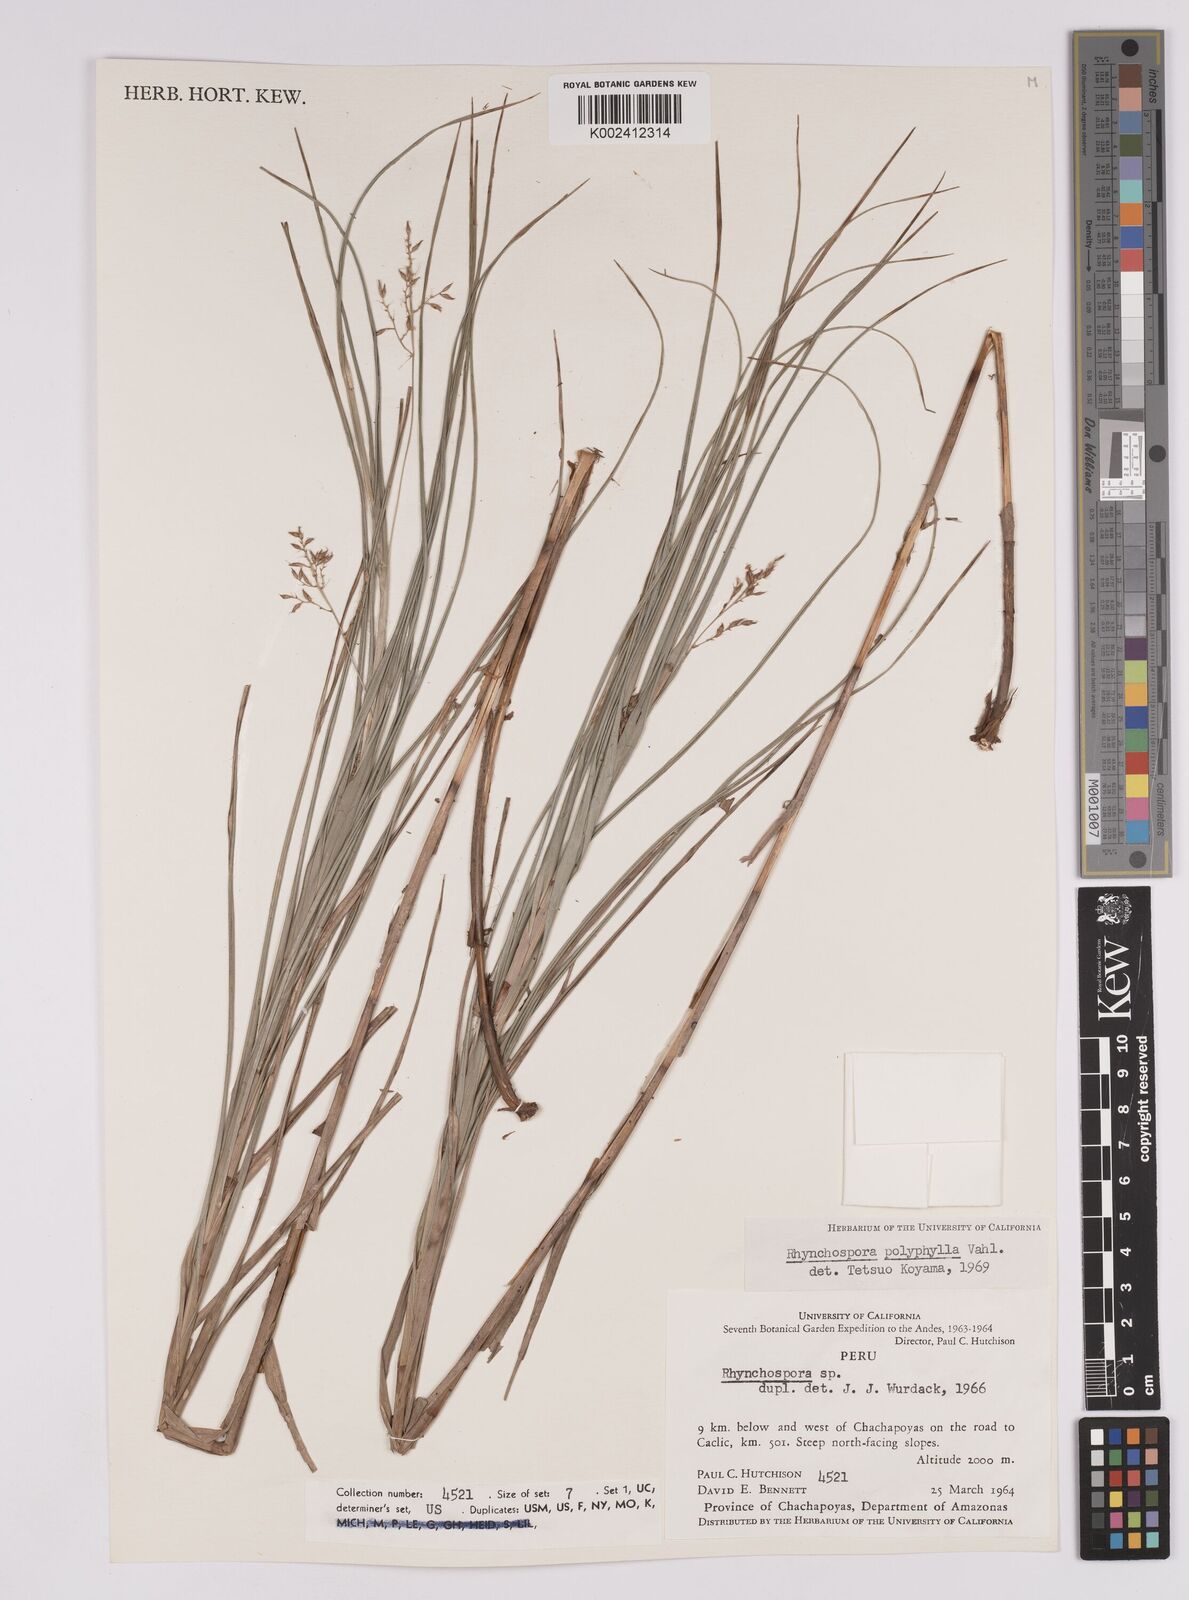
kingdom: Plantae
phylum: Tracheophyta
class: Liliopsida
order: Poales
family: Cyperaceae
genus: Rhynchospora
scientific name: Rhynchospora polyphylla
